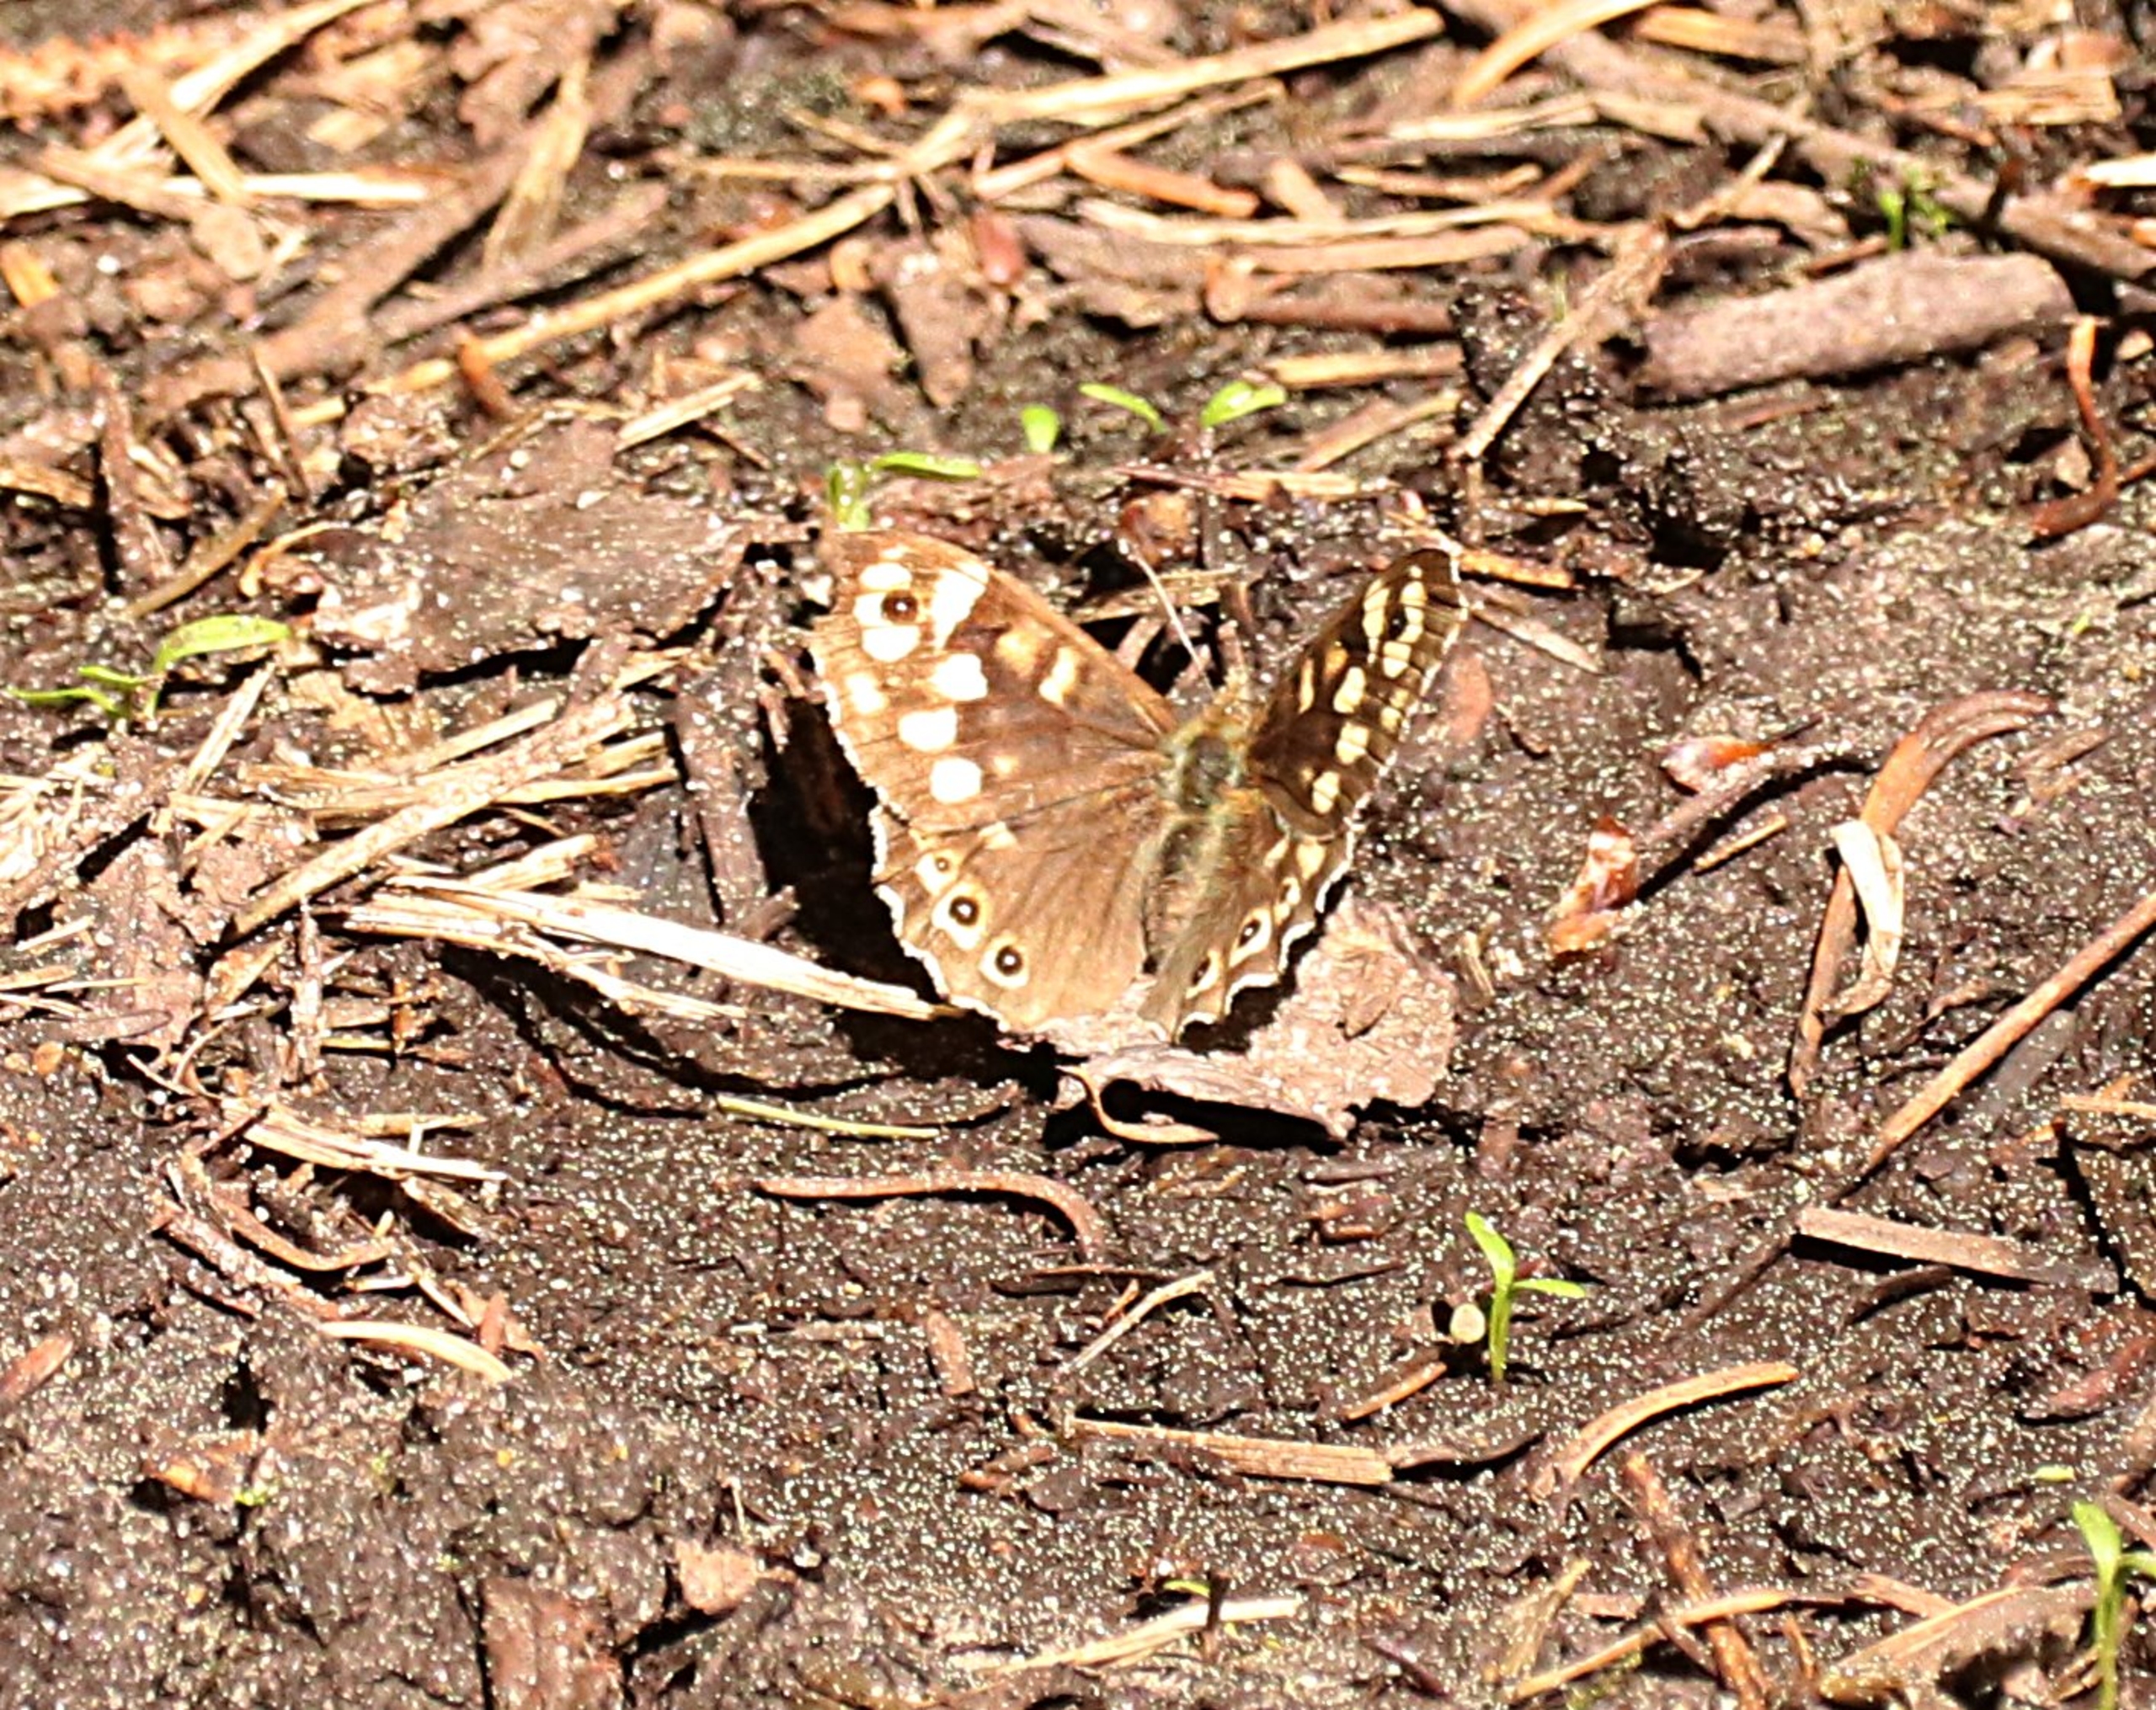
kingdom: Animalia
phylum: Arthropoda
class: Insecta
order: Lepidoptera
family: Nymphalidae
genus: Pararge
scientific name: Pararge aegeria
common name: Skovrandøje
